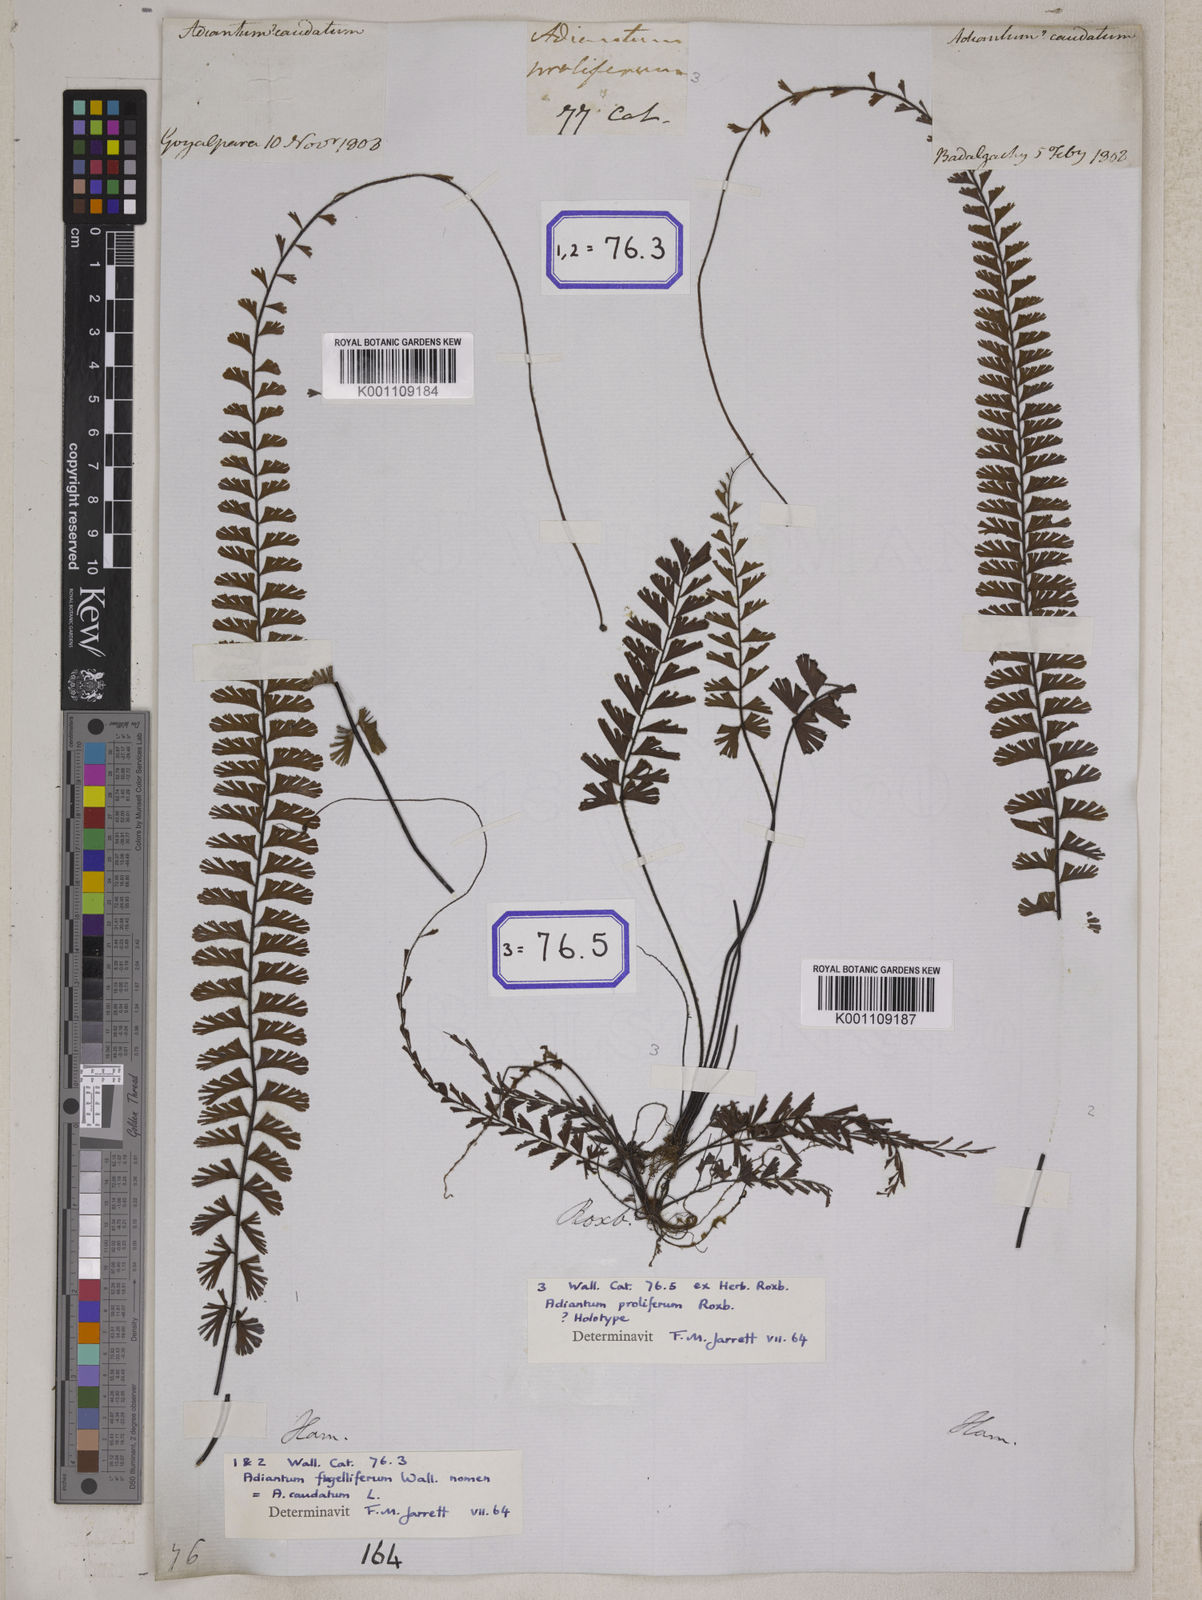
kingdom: Plantae
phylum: Tracheophyta
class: Polypodiopsida
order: Polypodiales
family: Pteridaceae
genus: Adiantum
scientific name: Adiantum caudatum
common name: Tailed maidenhair
